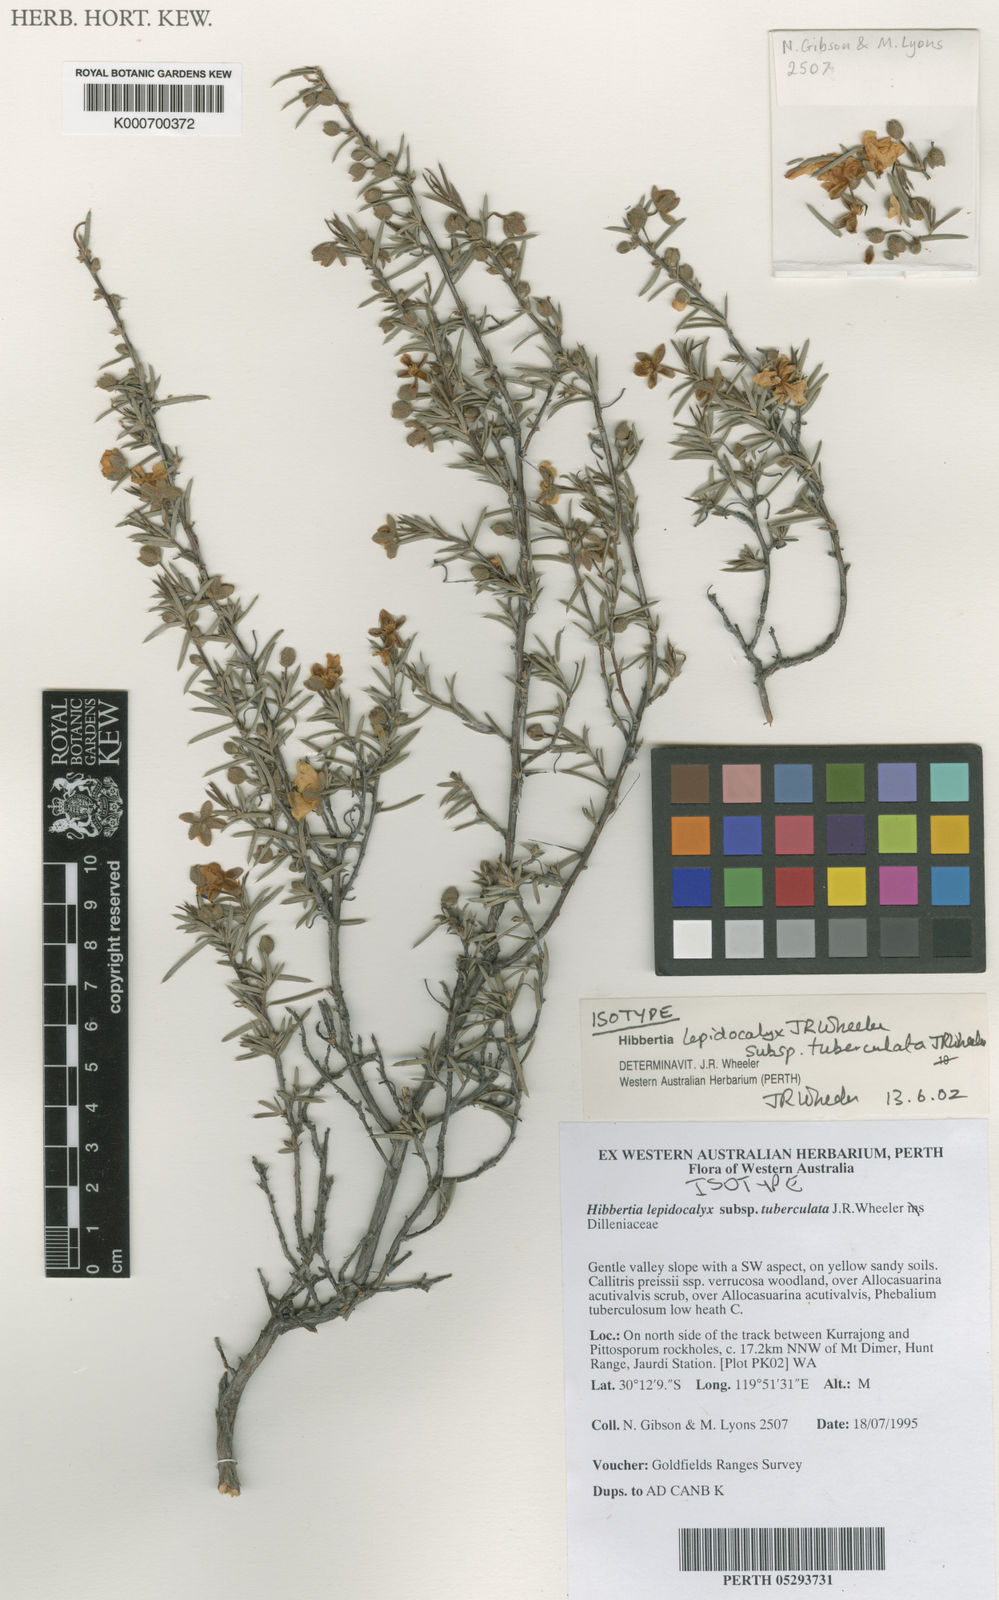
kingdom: Plantae
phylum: Tracheophyta
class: Magnoliopsida
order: Dilleniales
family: Dilleniaceae
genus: Hibbertia
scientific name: Hibbertia lepidocalyx
